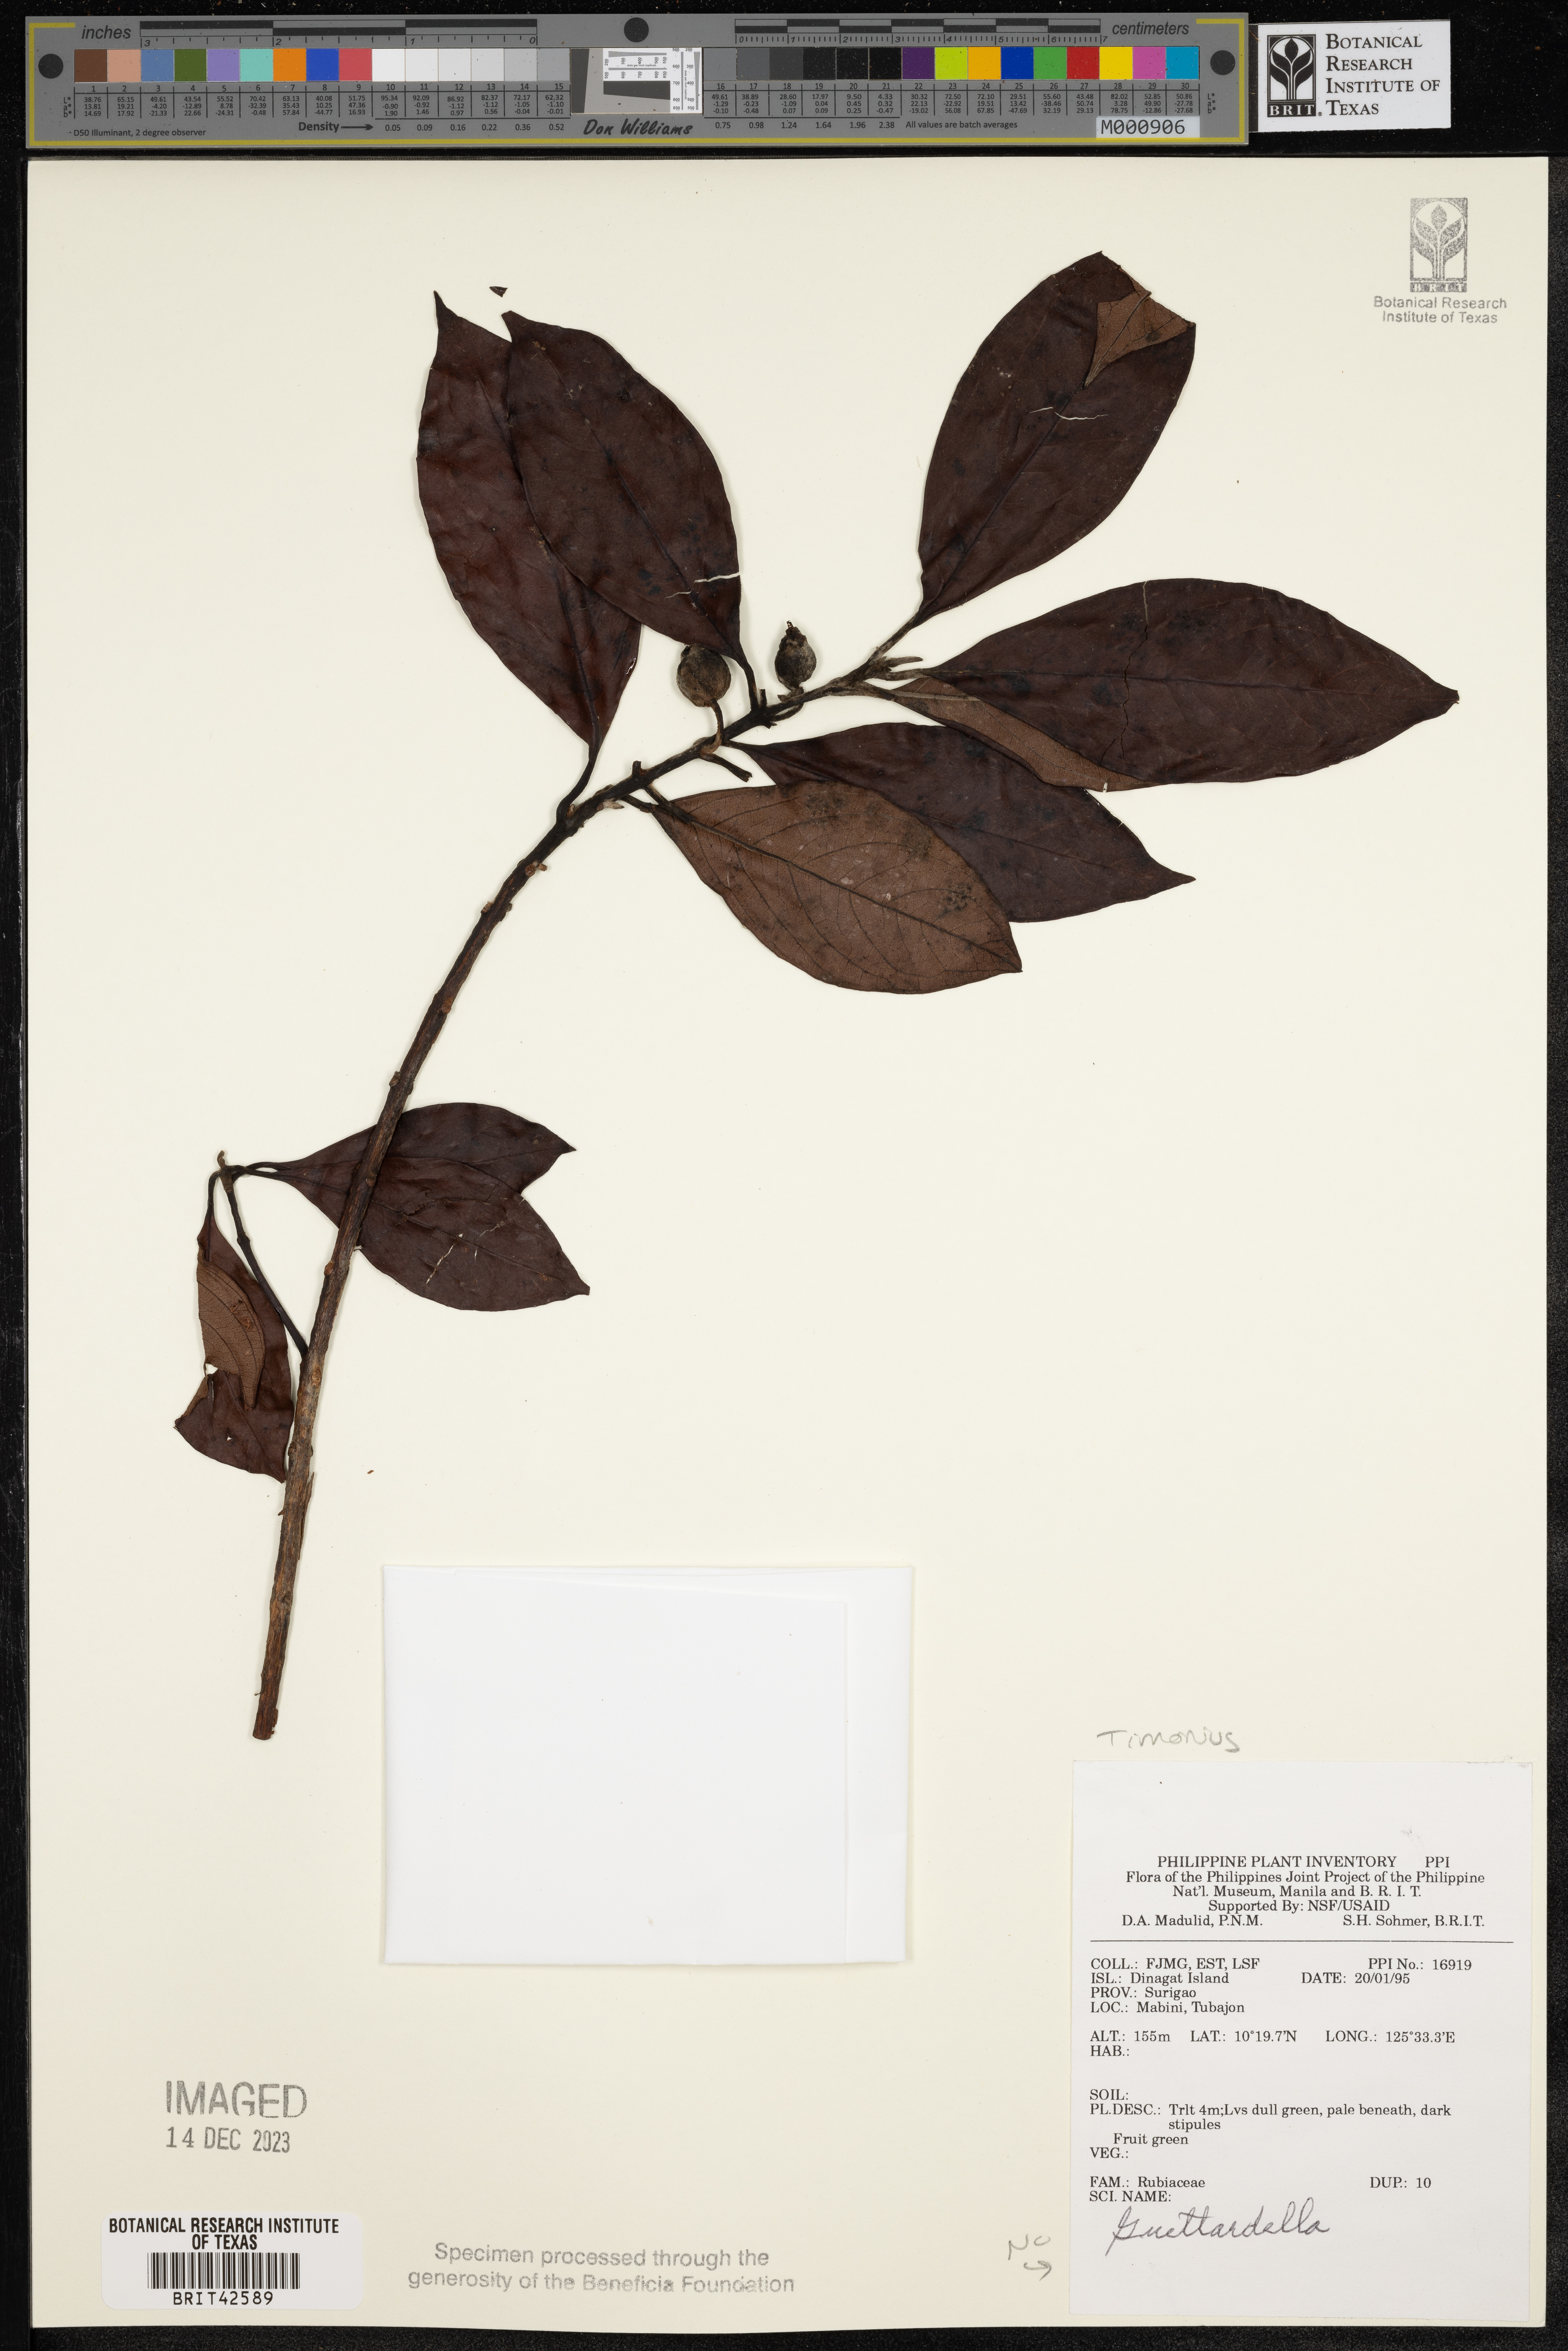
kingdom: Plantae
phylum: Tracheophyta
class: Magnoliopsida
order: Gentianales
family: Rubiaceae
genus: Timonius
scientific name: Timonius
